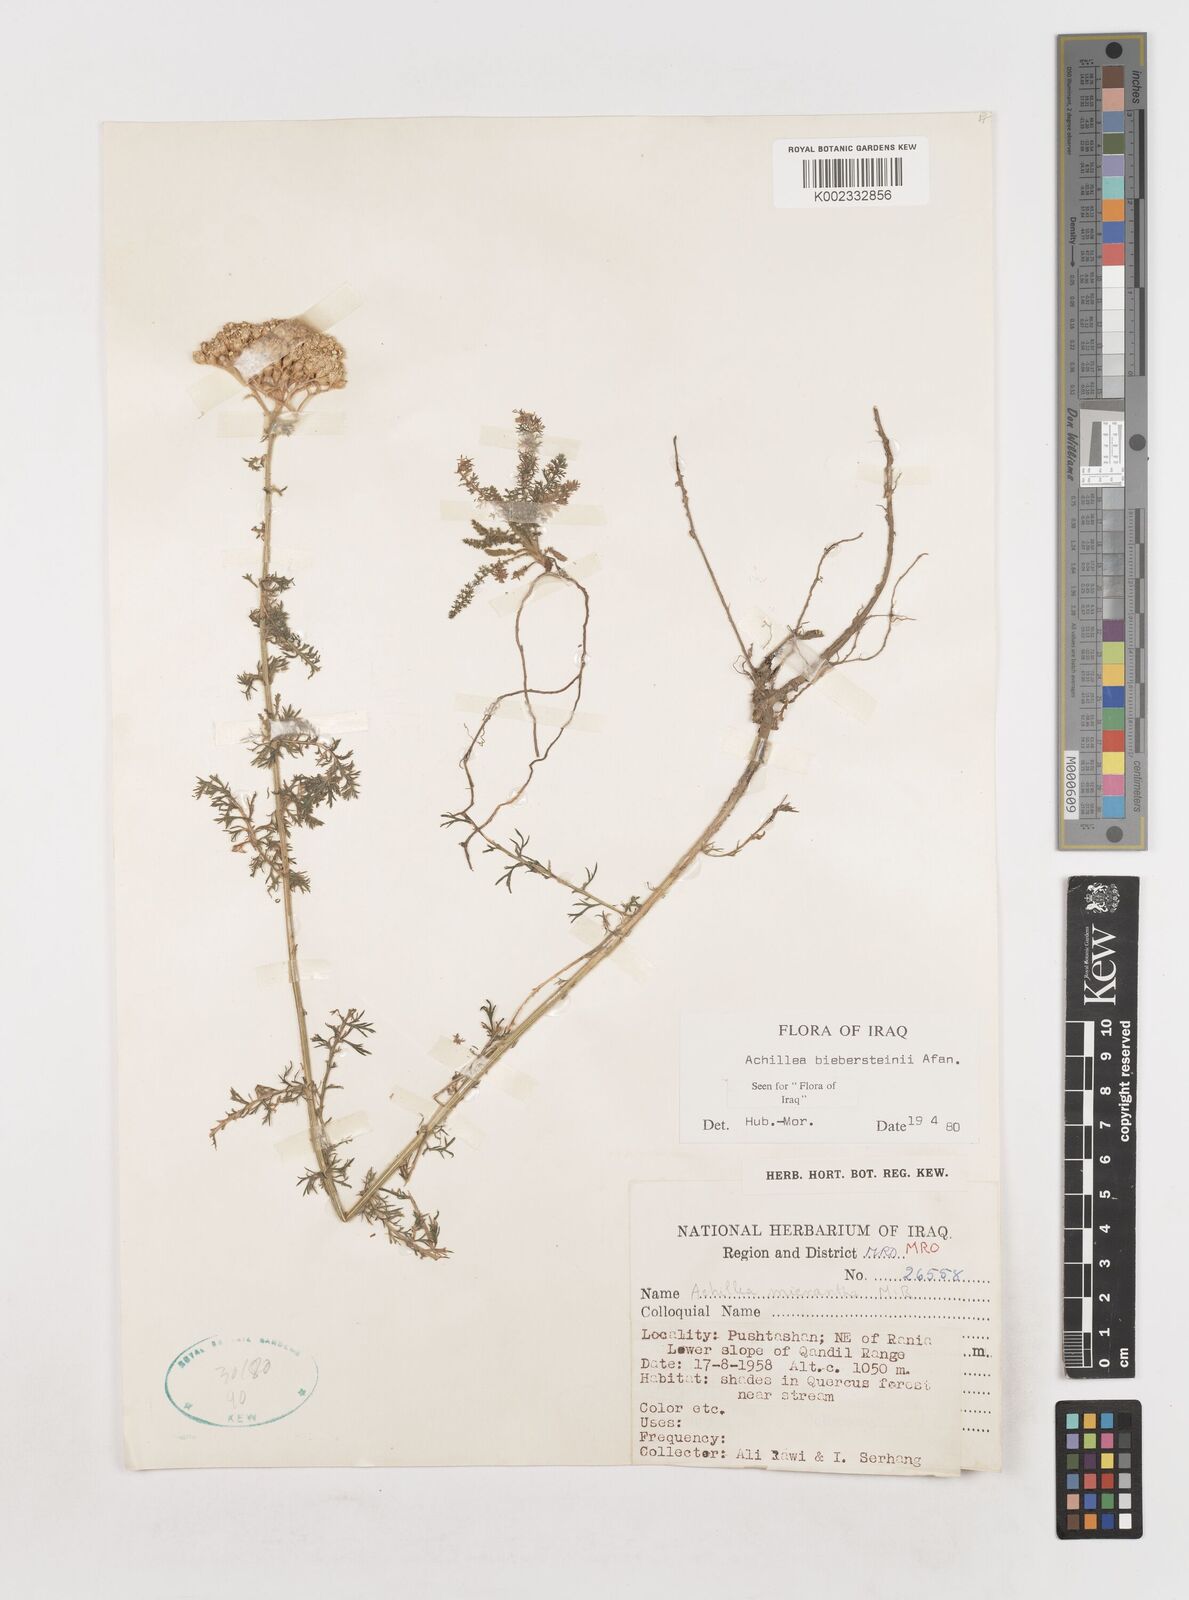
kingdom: Plantae
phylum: Tracheophyta
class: Magnoliopsida
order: Asterales
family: Asteraceae
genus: Achillea
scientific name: Achillea arabica
